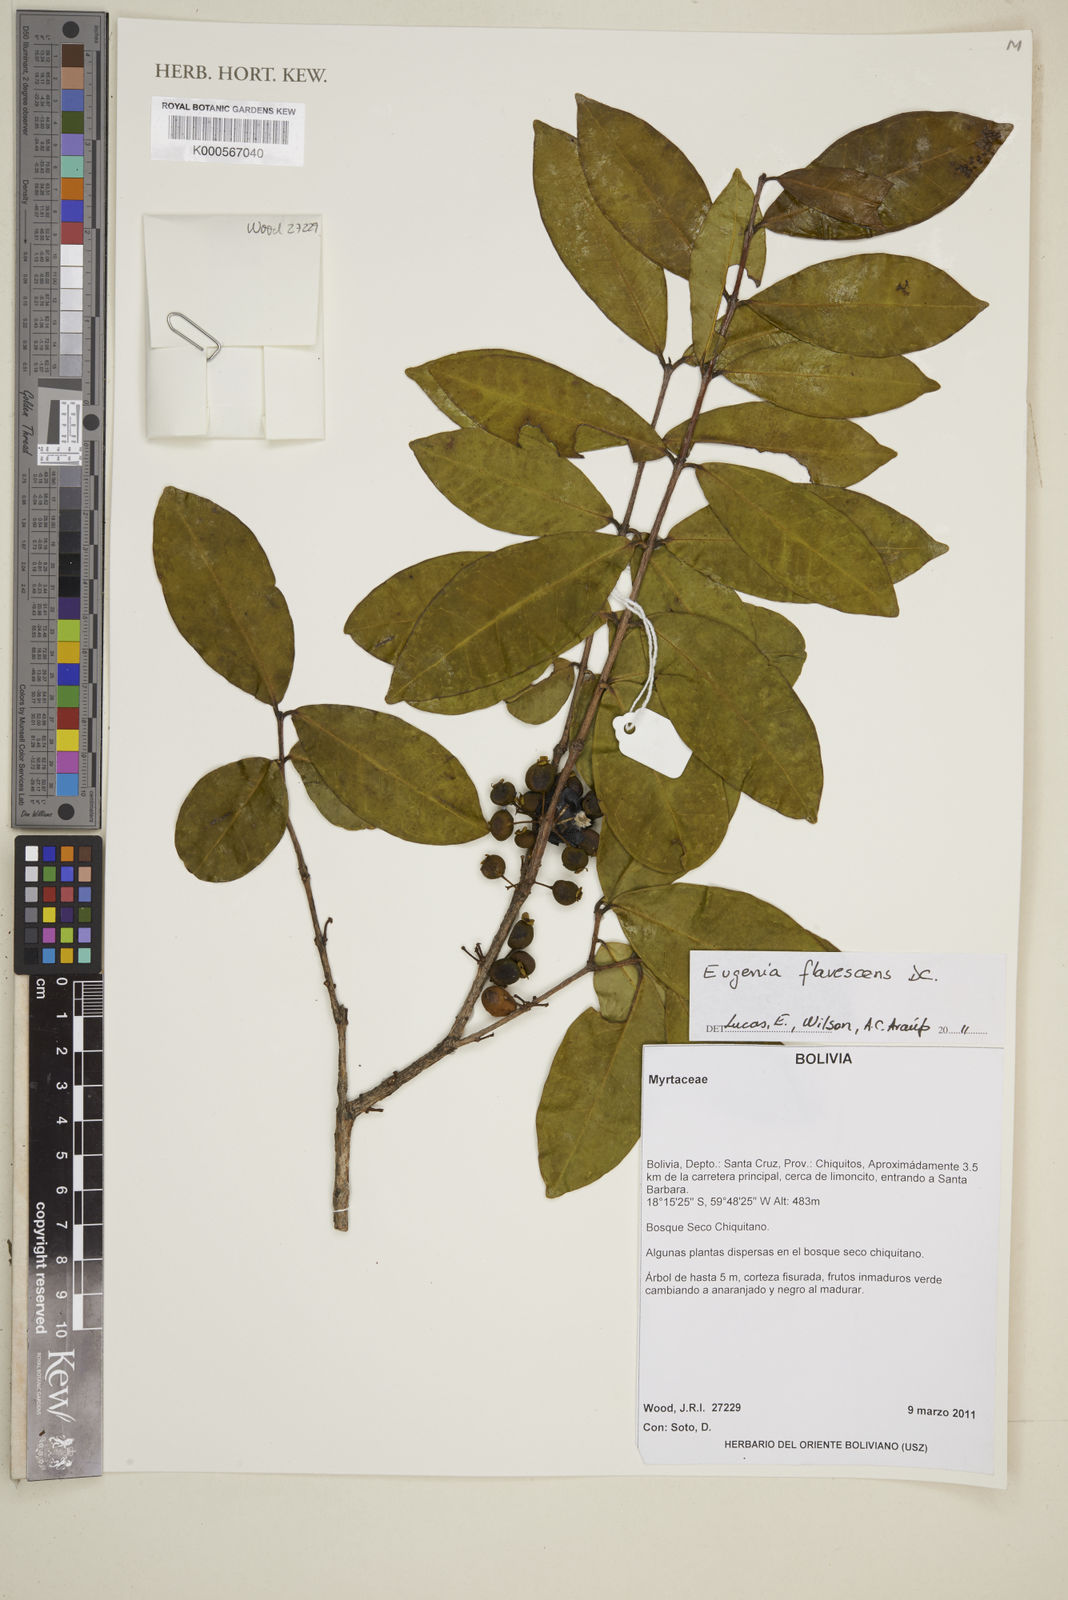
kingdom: Plantae
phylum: Tracheophyta
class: Magnoliopsida
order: Myrtales
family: Myrtaceae
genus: Eugenia
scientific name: Eugenia flavescens
